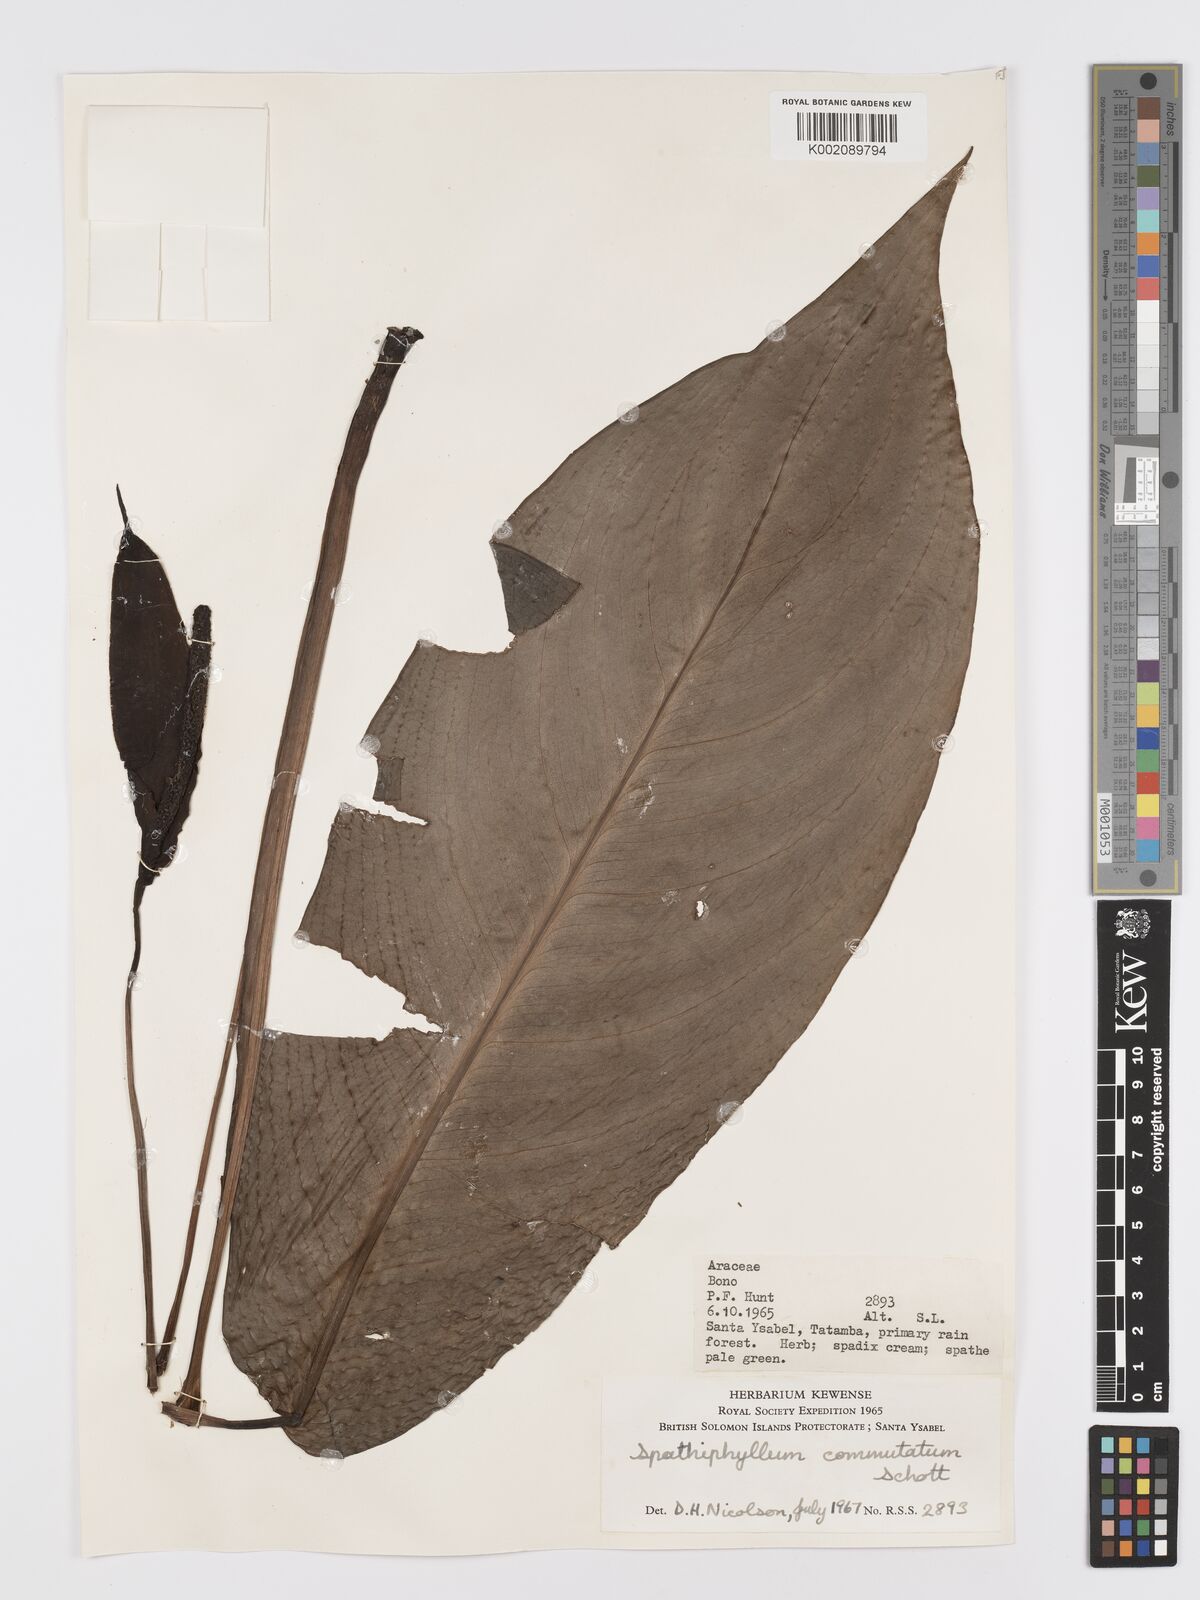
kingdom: Plantae
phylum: Tracheophyta
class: Liliopsida
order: Alismatales
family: Araceae
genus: Spathiphyllum
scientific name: Spathiphyllum commutatum
